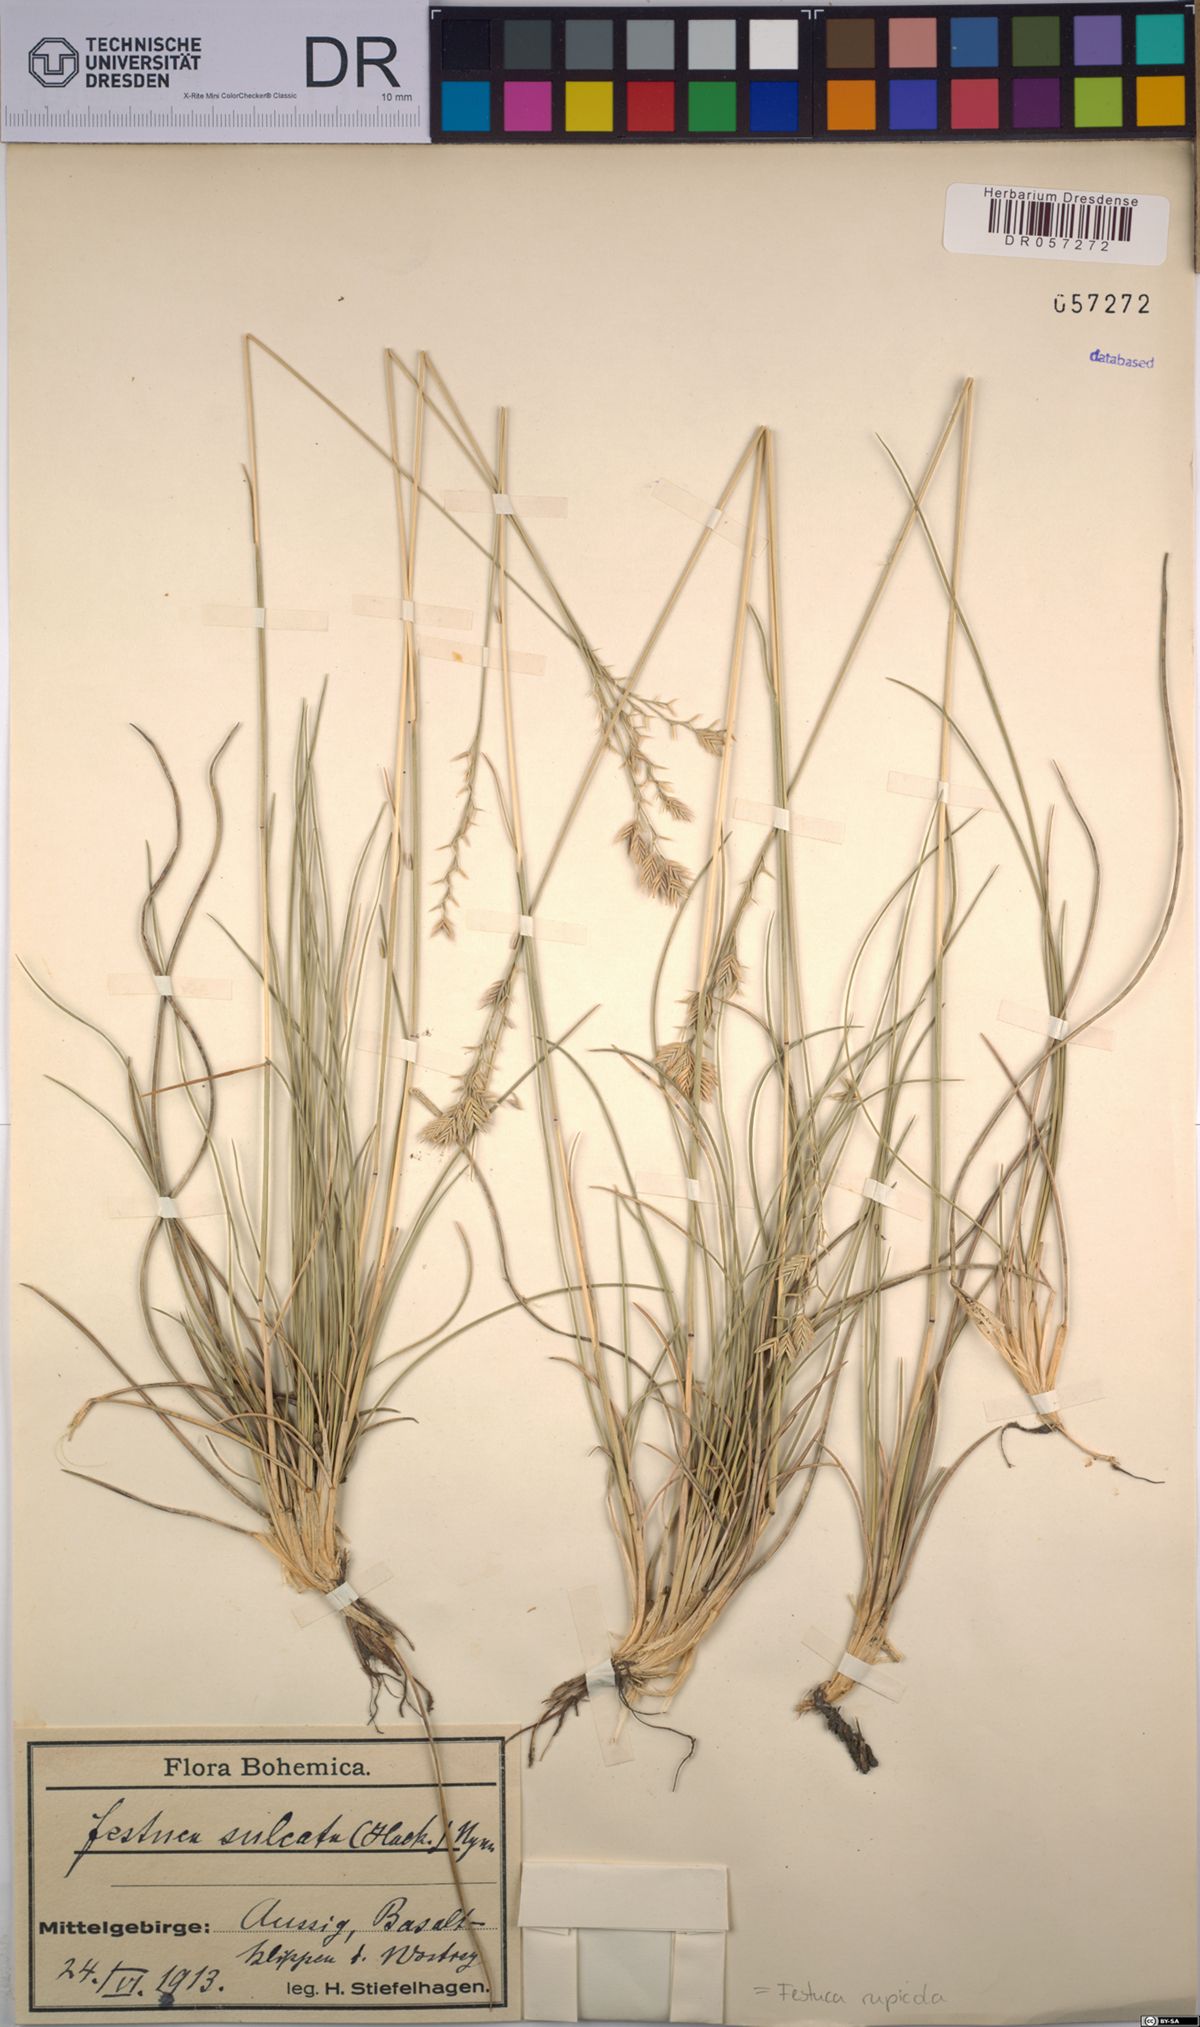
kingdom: Plantae
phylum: Tracheophyta
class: Liliopsida
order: Poales
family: Poaceae
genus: Festuca
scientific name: Festuca rupicola
